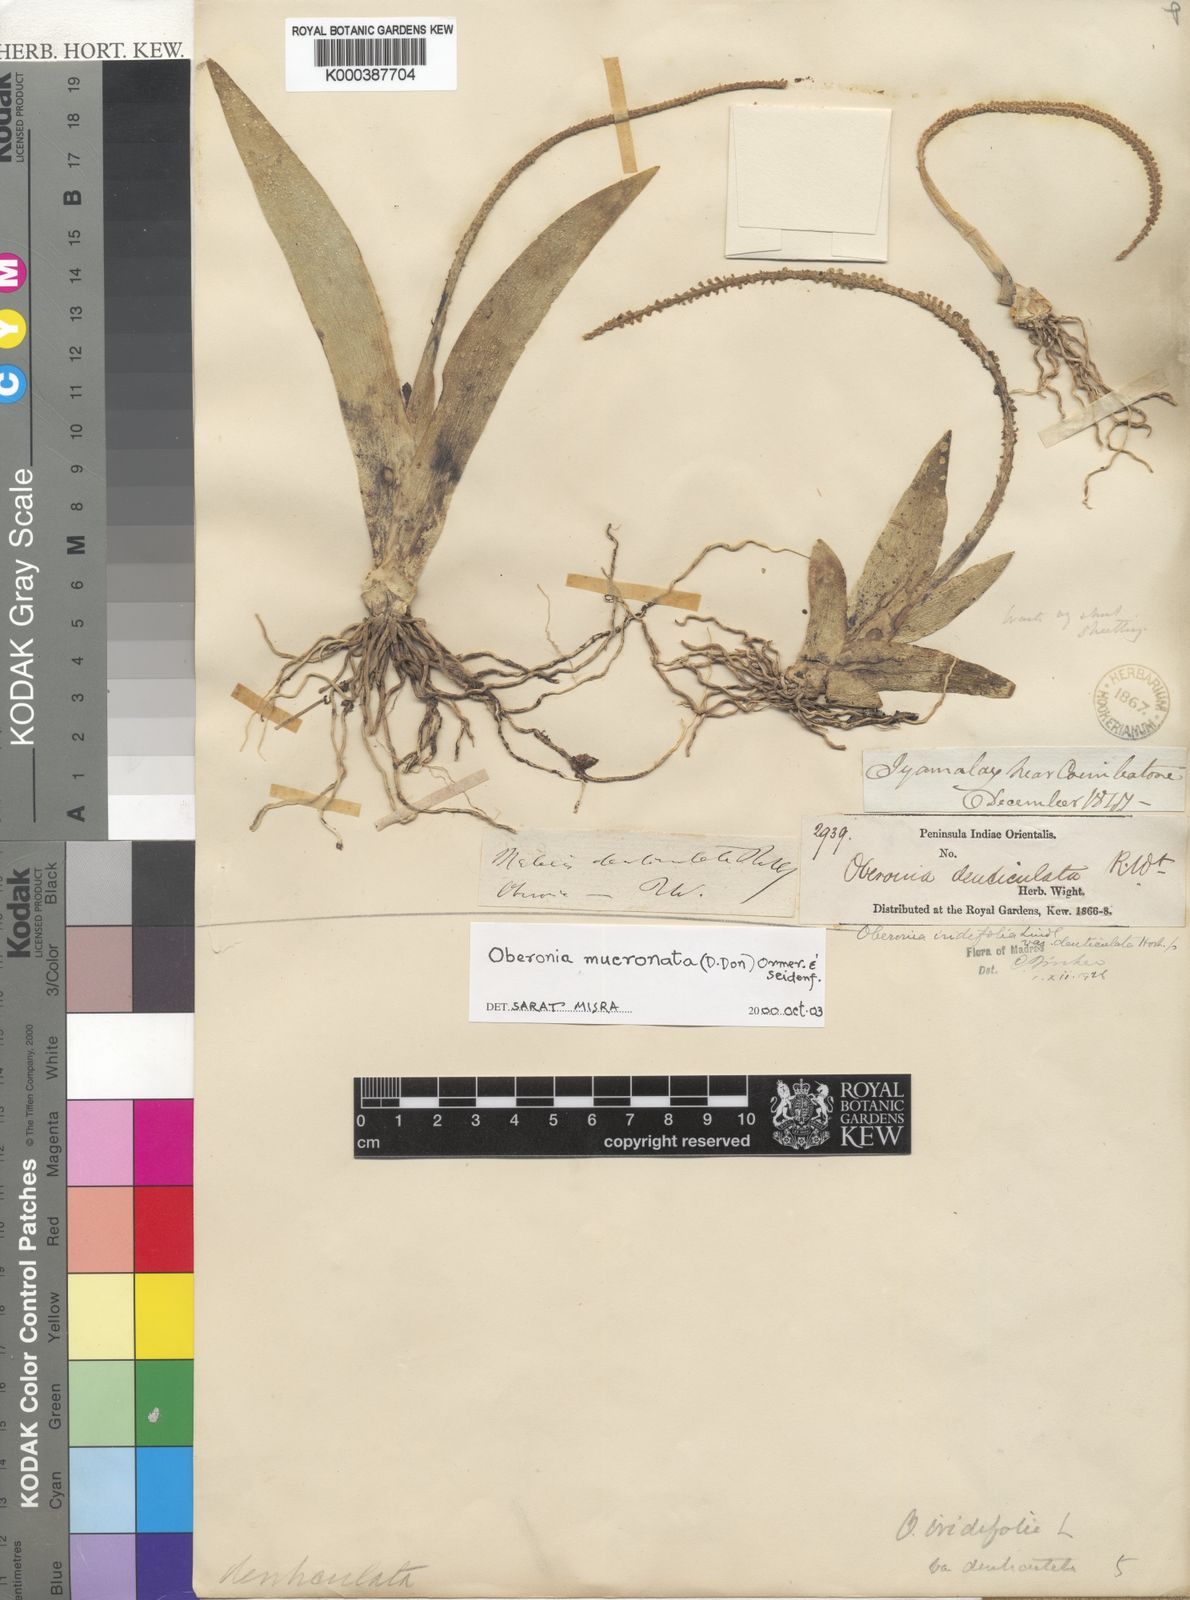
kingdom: Plantae
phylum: Tracheophyta
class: Liliopsida
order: Asparagales
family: Orchidaceae
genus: Oberonia
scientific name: Oberonia mucronata
